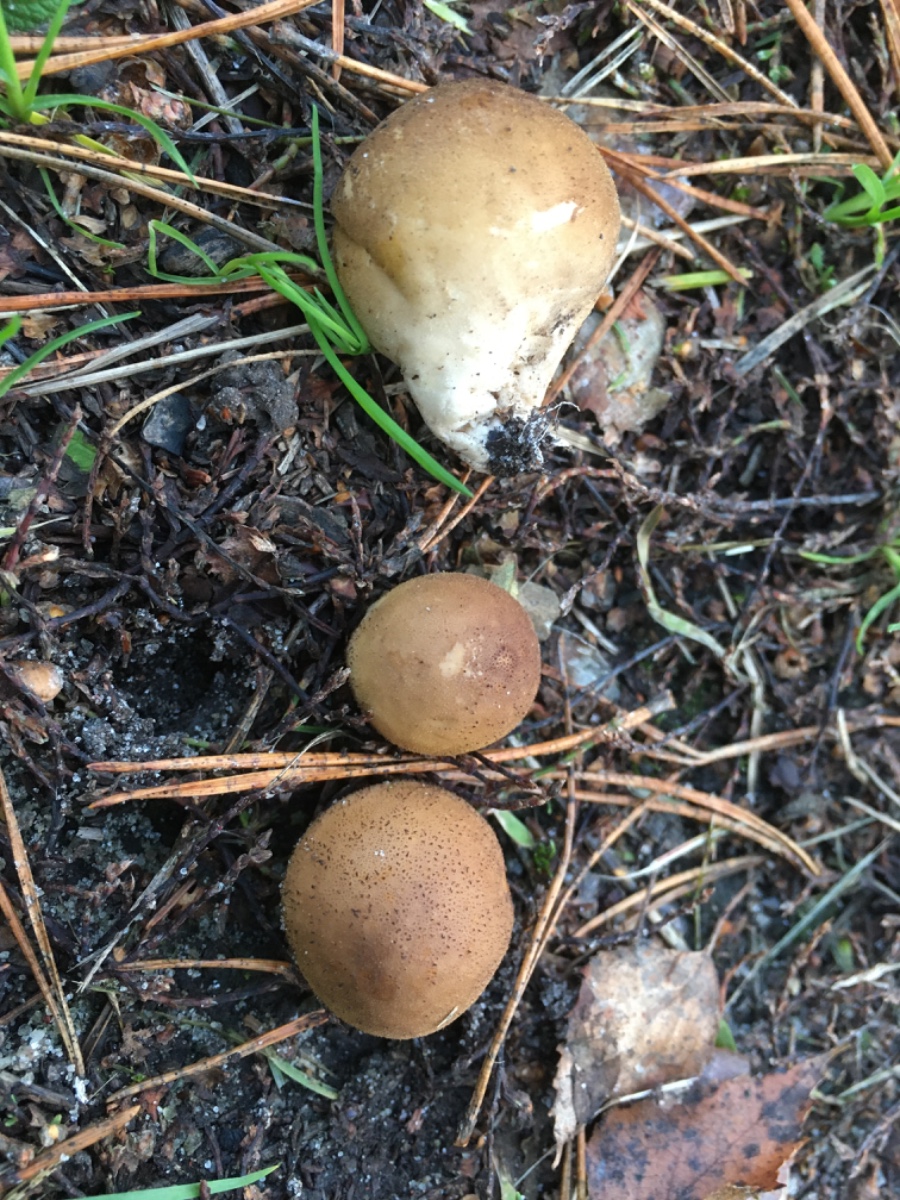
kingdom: Fungi
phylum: Basidiomycota
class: Agaricomycetes
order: Agaricales
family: Lycoperdaceae
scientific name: Lycoperdaceae
